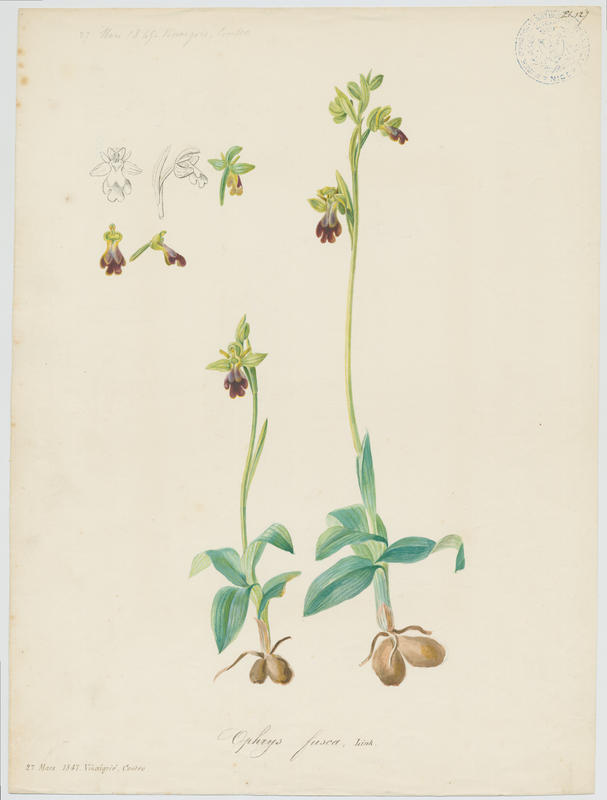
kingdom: Plantae
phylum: Tracheophyta
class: Liliopsida
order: Asparagales
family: Orchidaceae
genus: Ophrys
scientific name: Ophrys fusca
